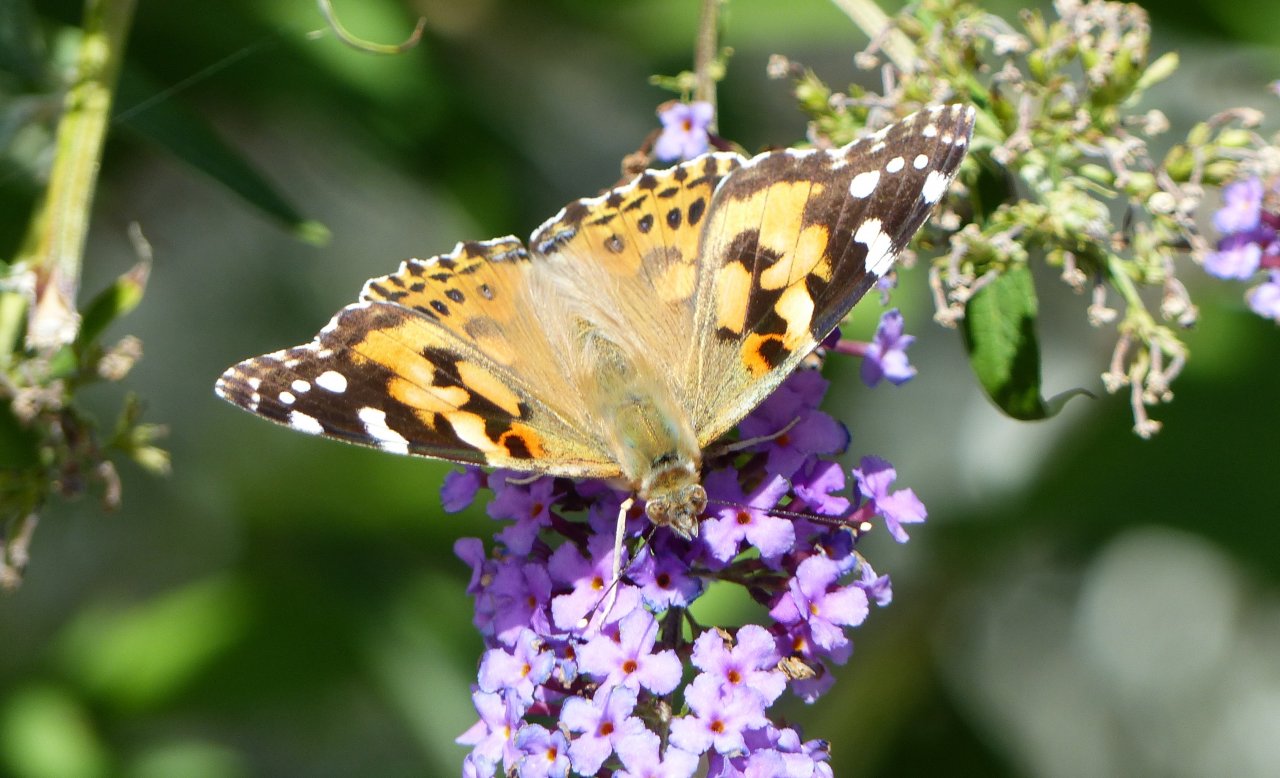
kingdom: Animalia
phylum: Arthropoda
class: Insecta
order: Lepidoptera
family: Nymphalidae
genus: Vanessa
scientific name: Vanessa cardui
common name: Painted Lady
